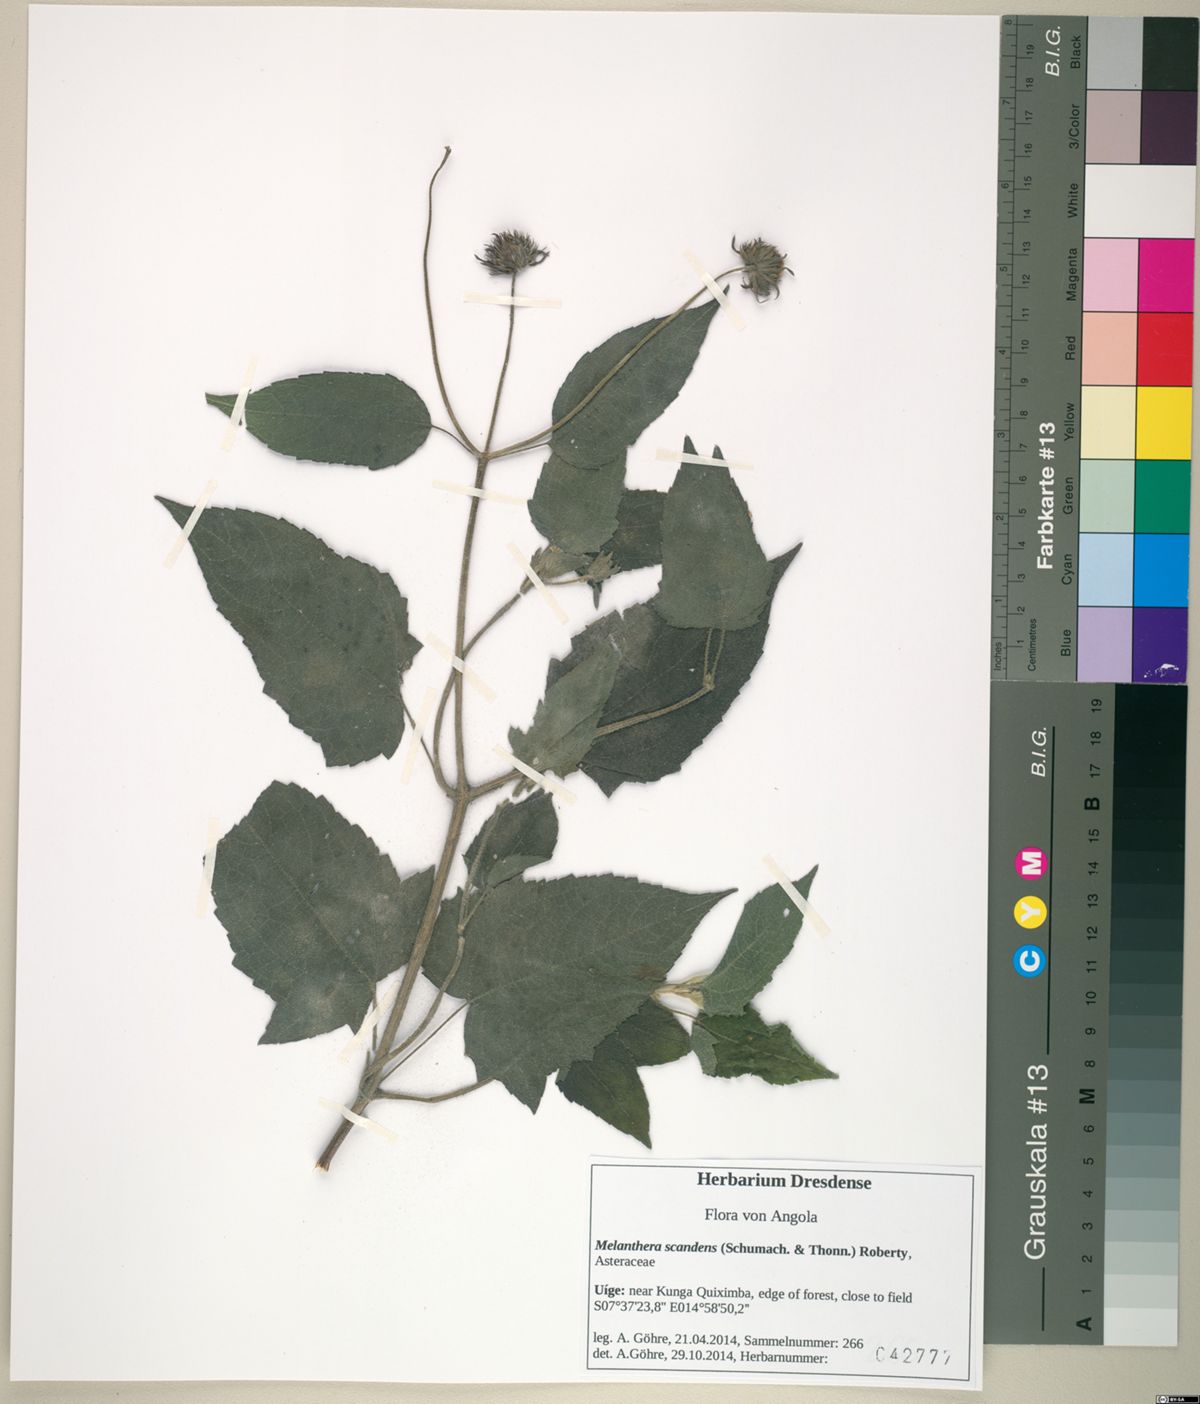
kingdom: Plantae
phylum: Tracheophyta
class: Magnoliopsida
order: Asterales
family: Asteraceae
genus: Melanthera
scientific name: Melanthera scandens
